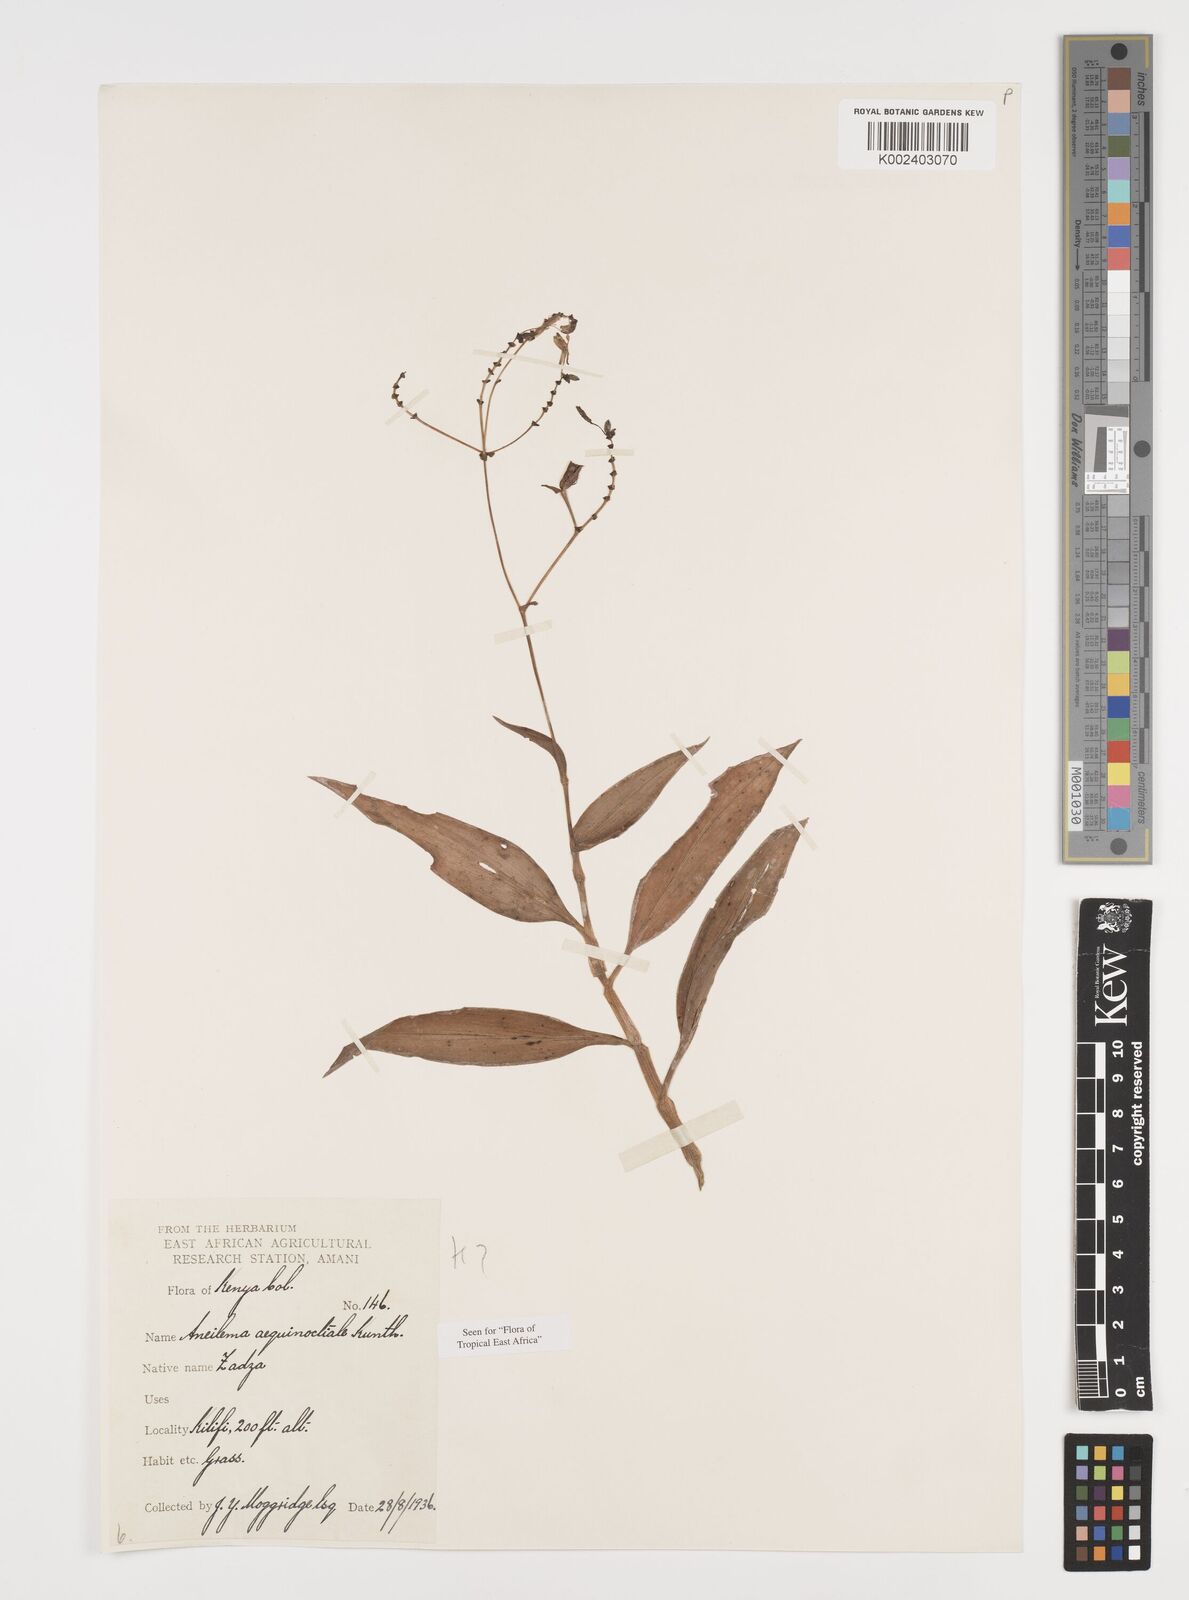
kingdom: Plantae
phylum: Tracheophyta
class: Liliopsida
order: Commelinales
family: Commelinaceae
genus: Aneilema
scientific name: Aneilema aequinoctiale
